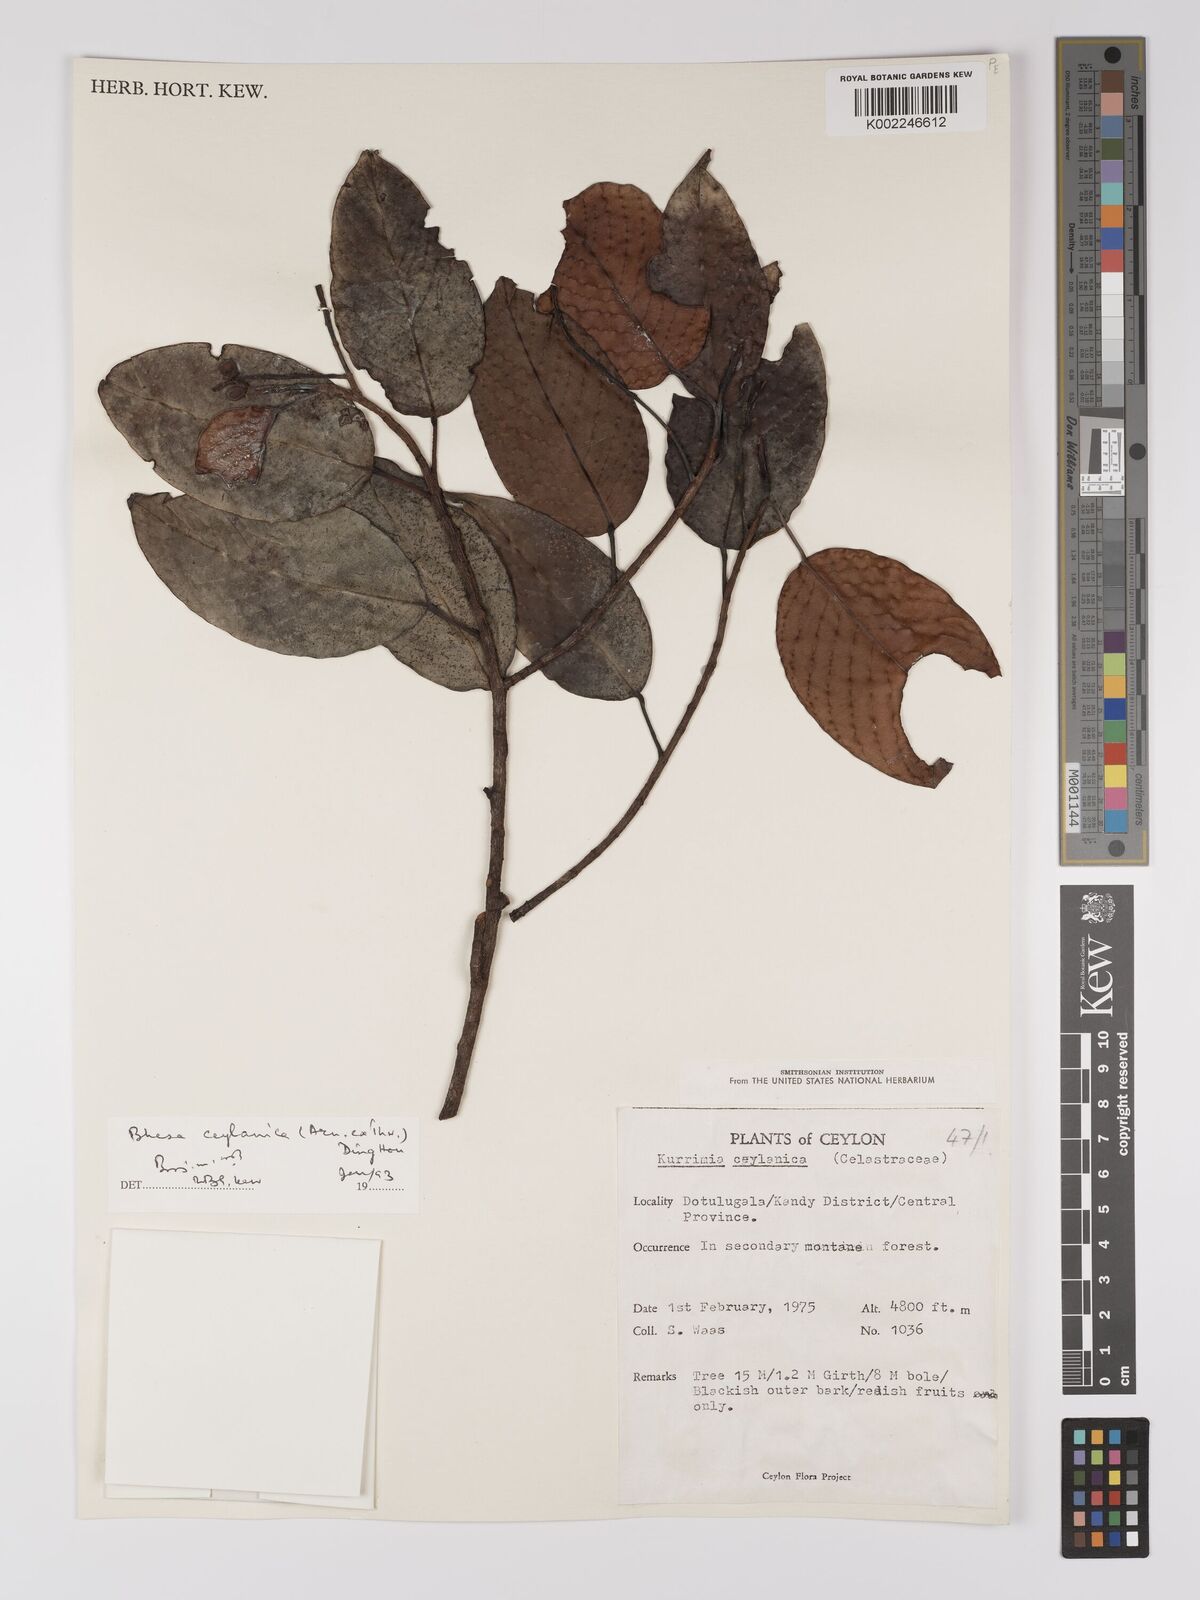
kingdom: Plantae
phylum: Tracheophyta
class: Magnoliopsida
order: Malpighiales
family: Centroplacaceae
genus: Bhesa
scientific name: Bhesa ceylanica
